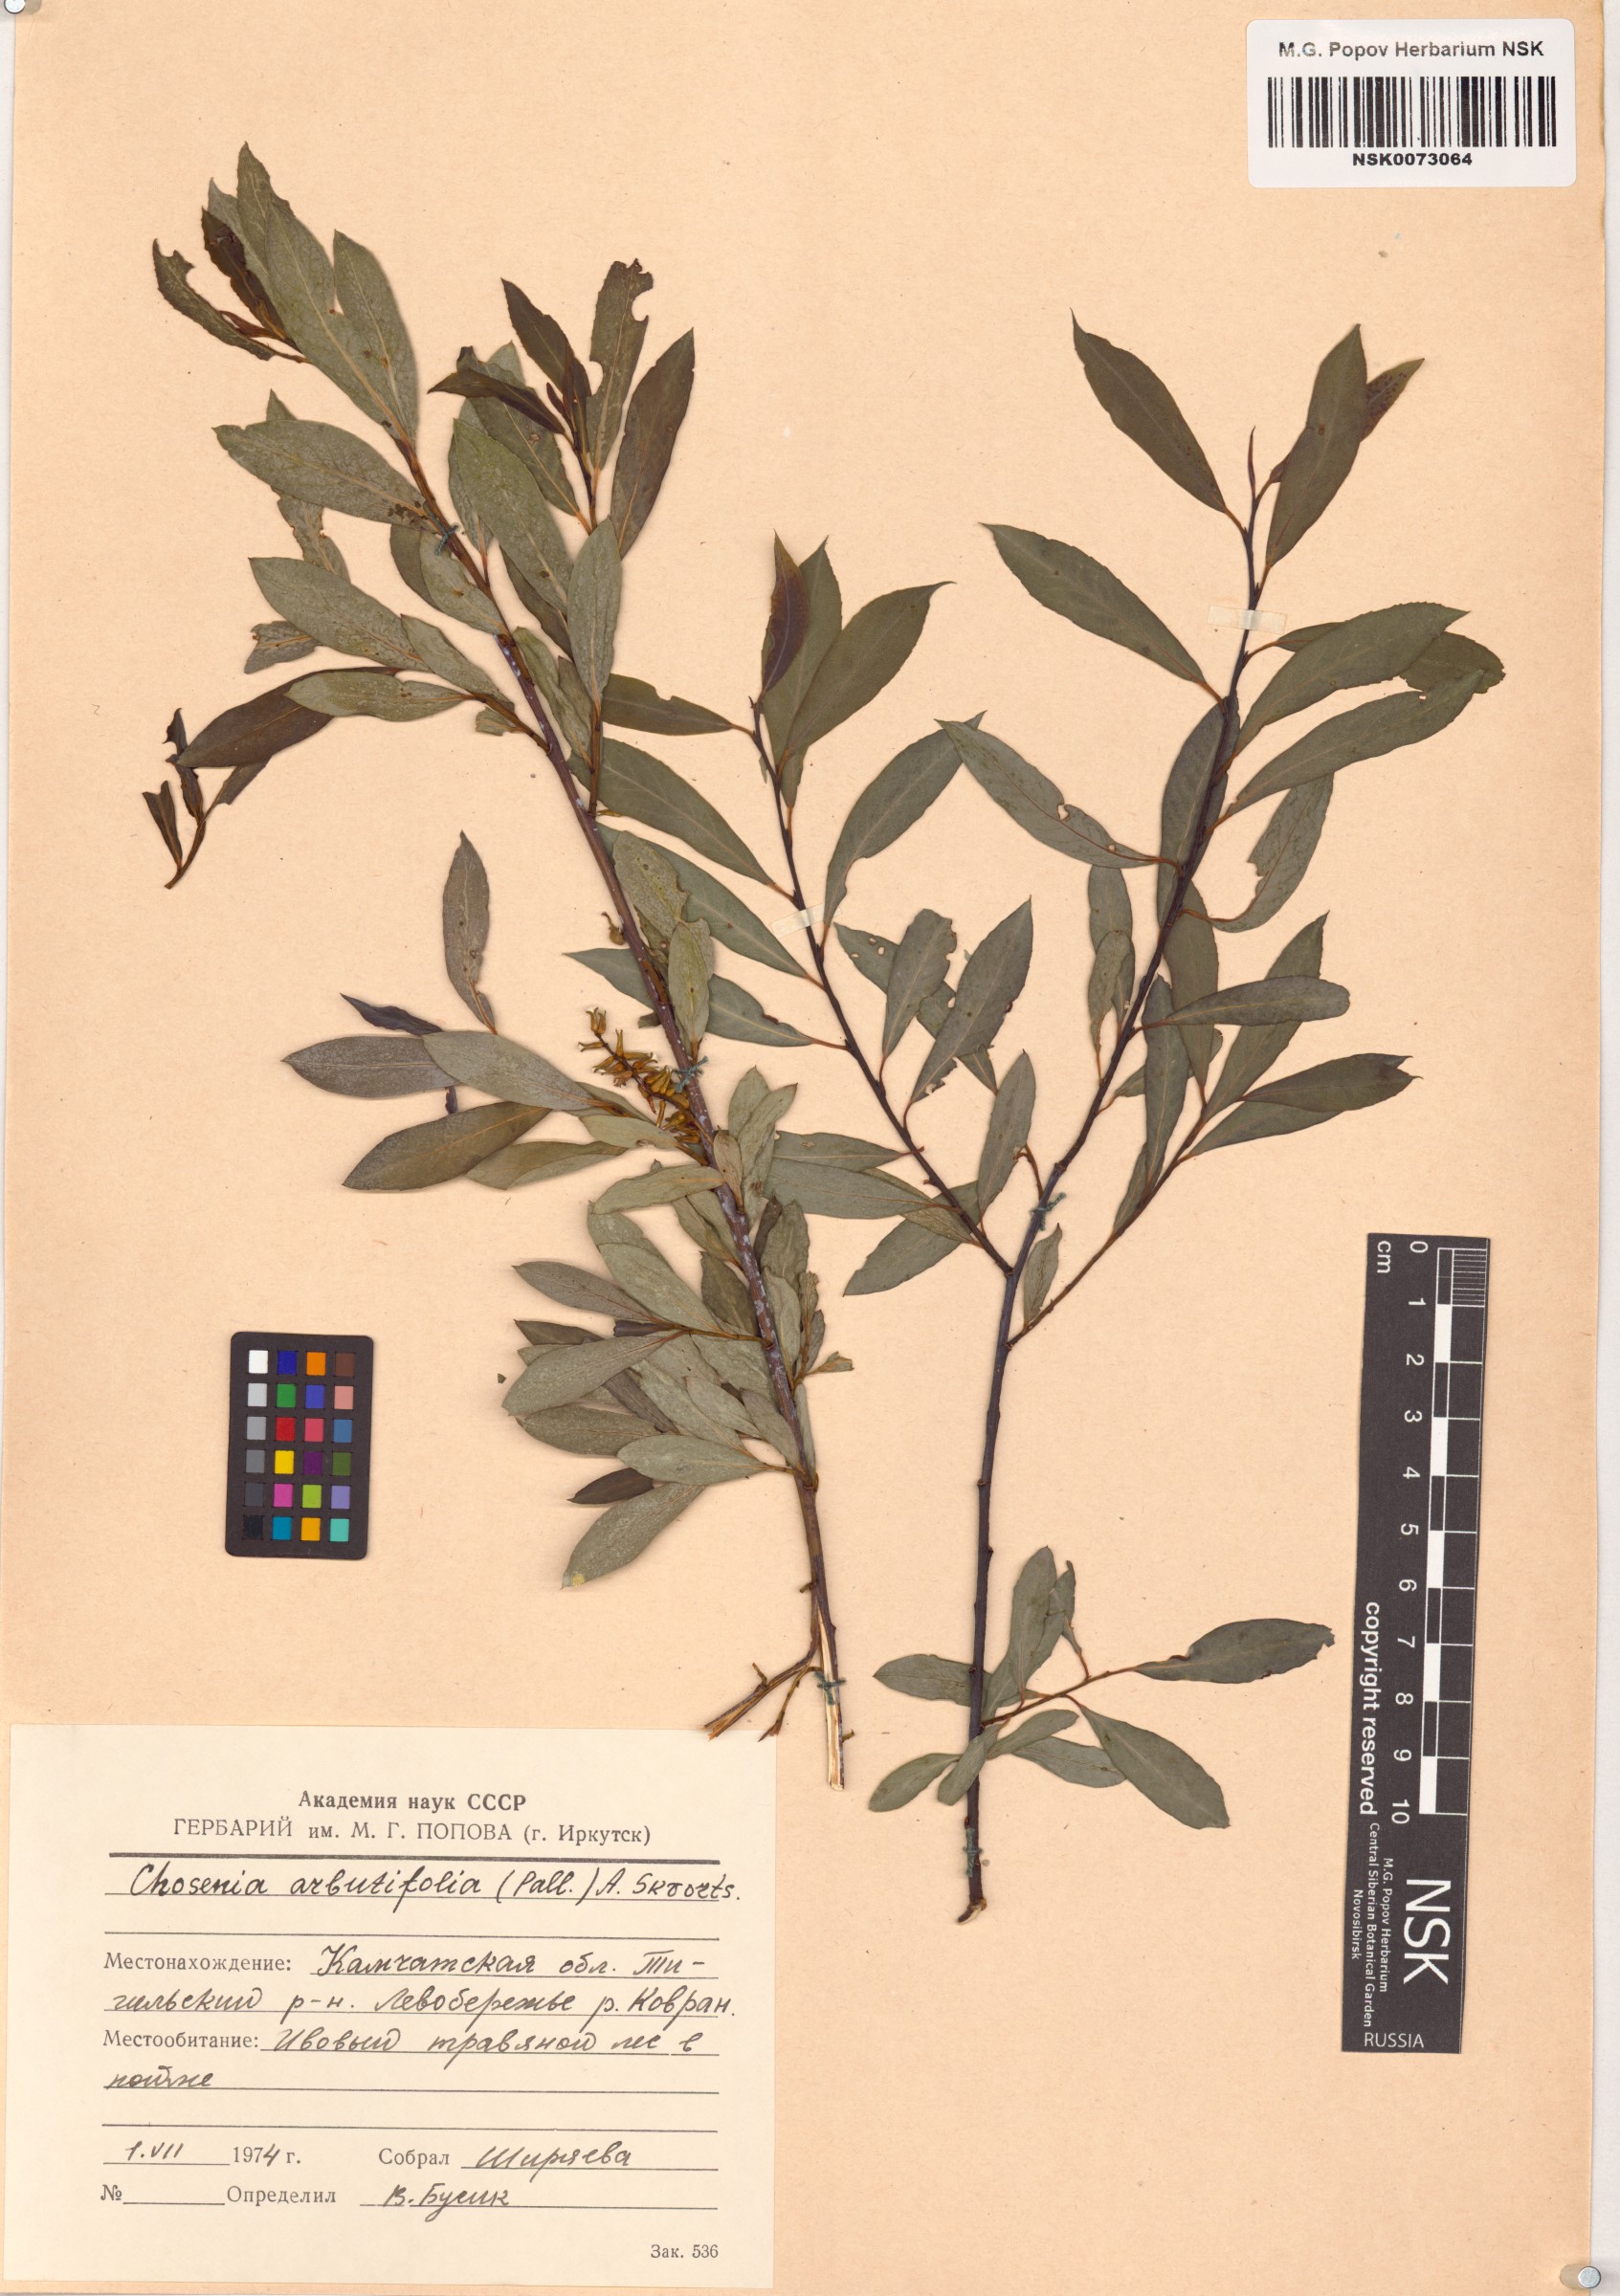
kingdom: Plantae
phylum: Tracheophyta
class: Magnoliopsida
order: Malpighiales
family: Salicaceae
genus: Chosenia
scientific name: Chosenia arbutifolia
